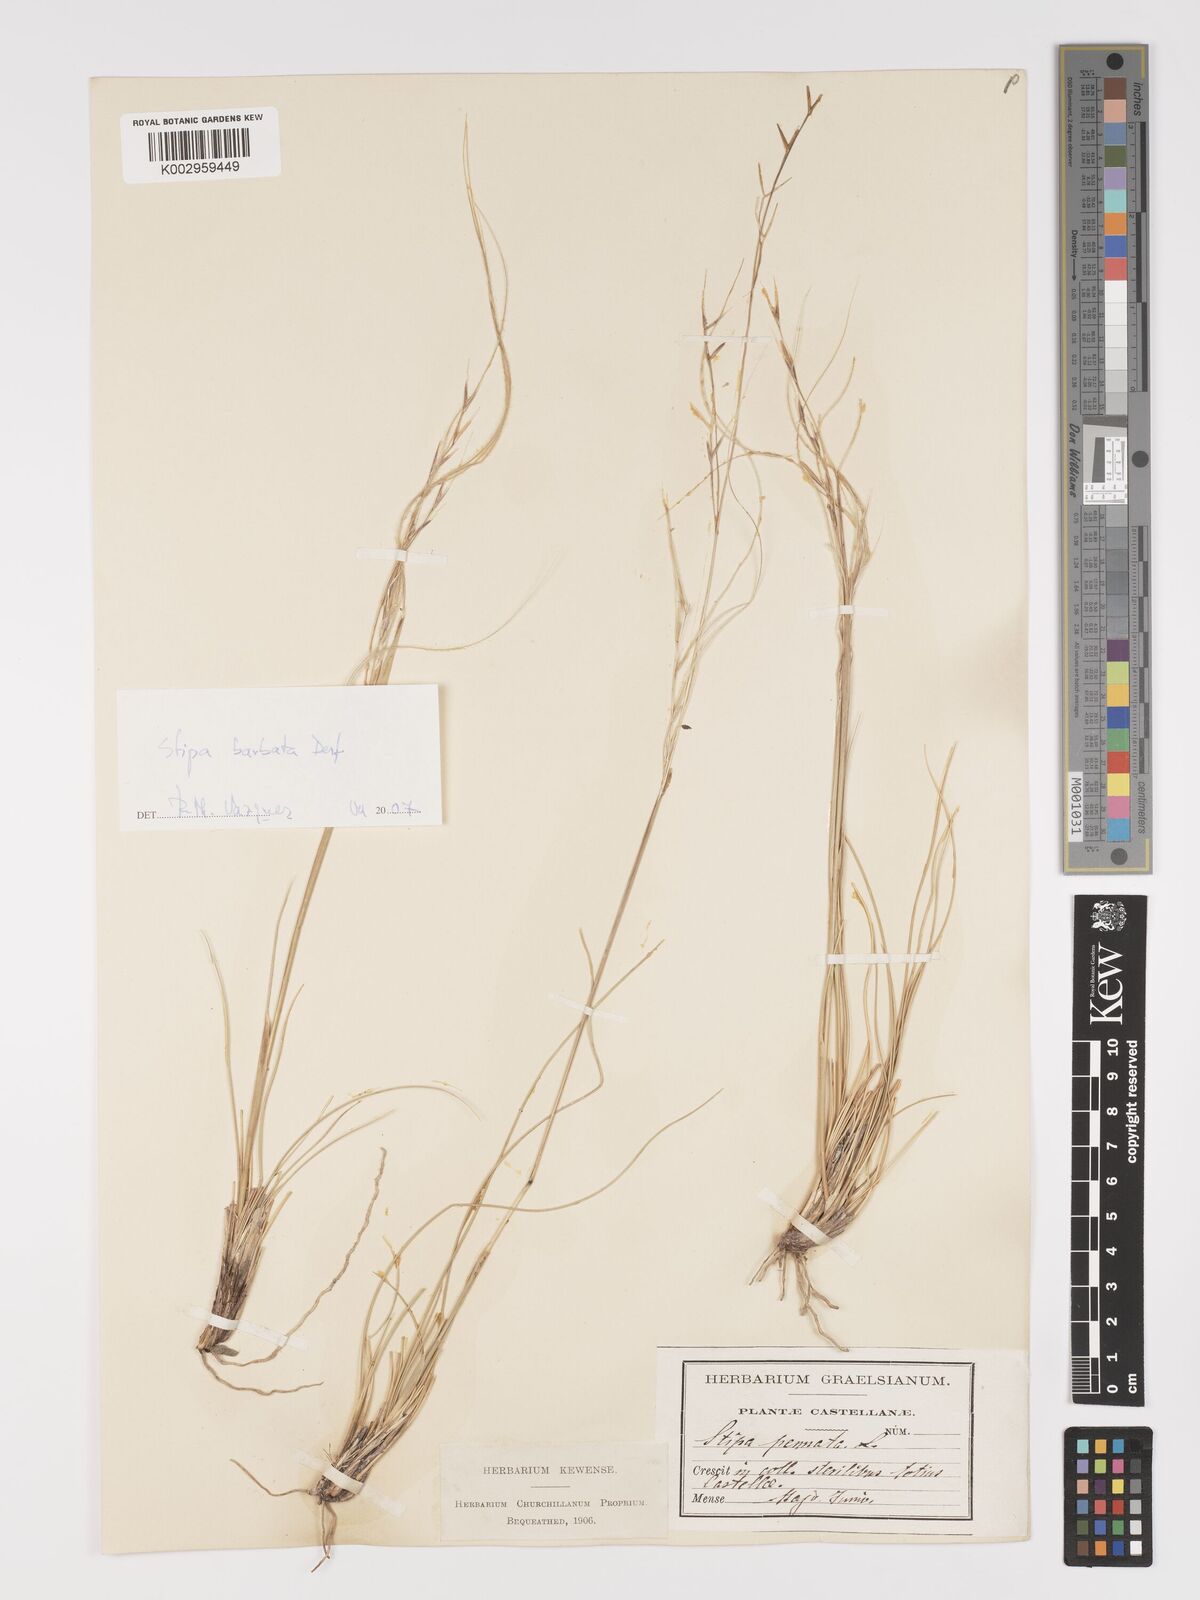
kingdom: Plantae
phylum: Tracheophyta
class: Liliopsida
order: Poales
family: Poaceae
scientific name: Poaceae
